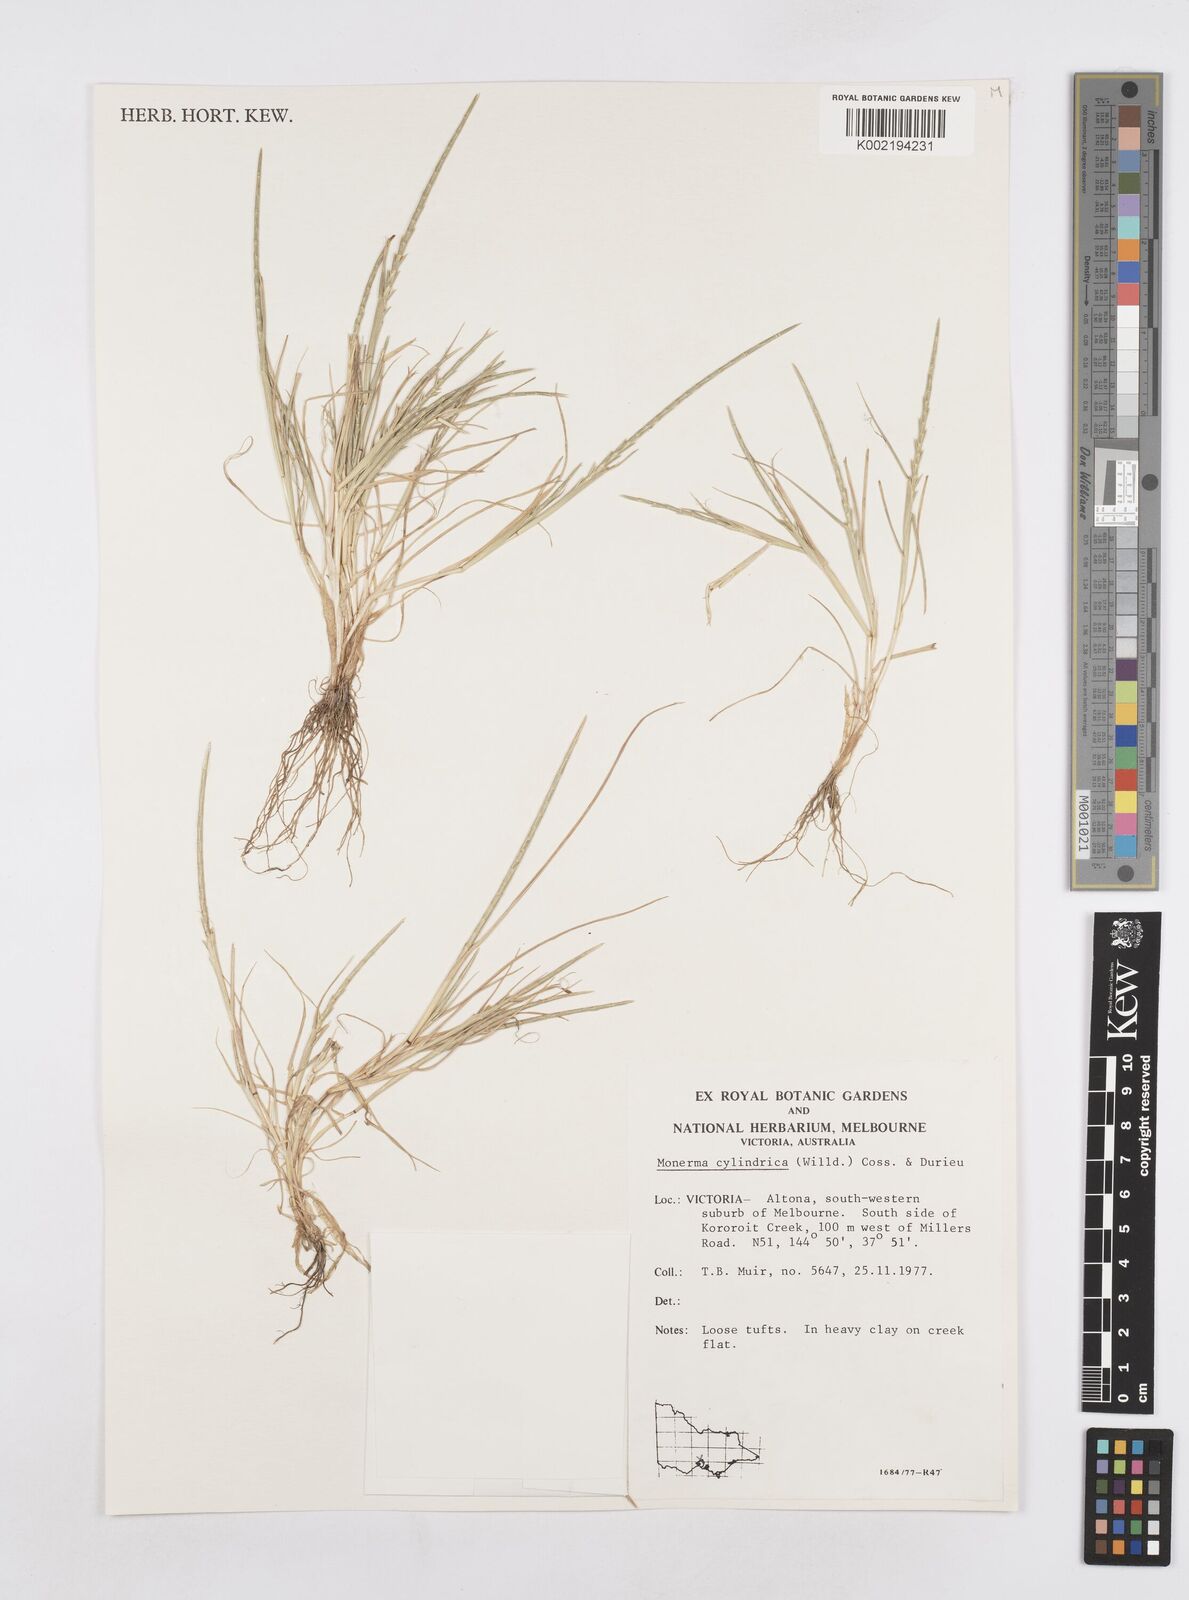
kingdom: Plantae
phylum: Tracheophyta
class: Liliopsida
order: Poales
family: Poaceae
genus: Parapholis
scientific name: Parapholis cylindrica
